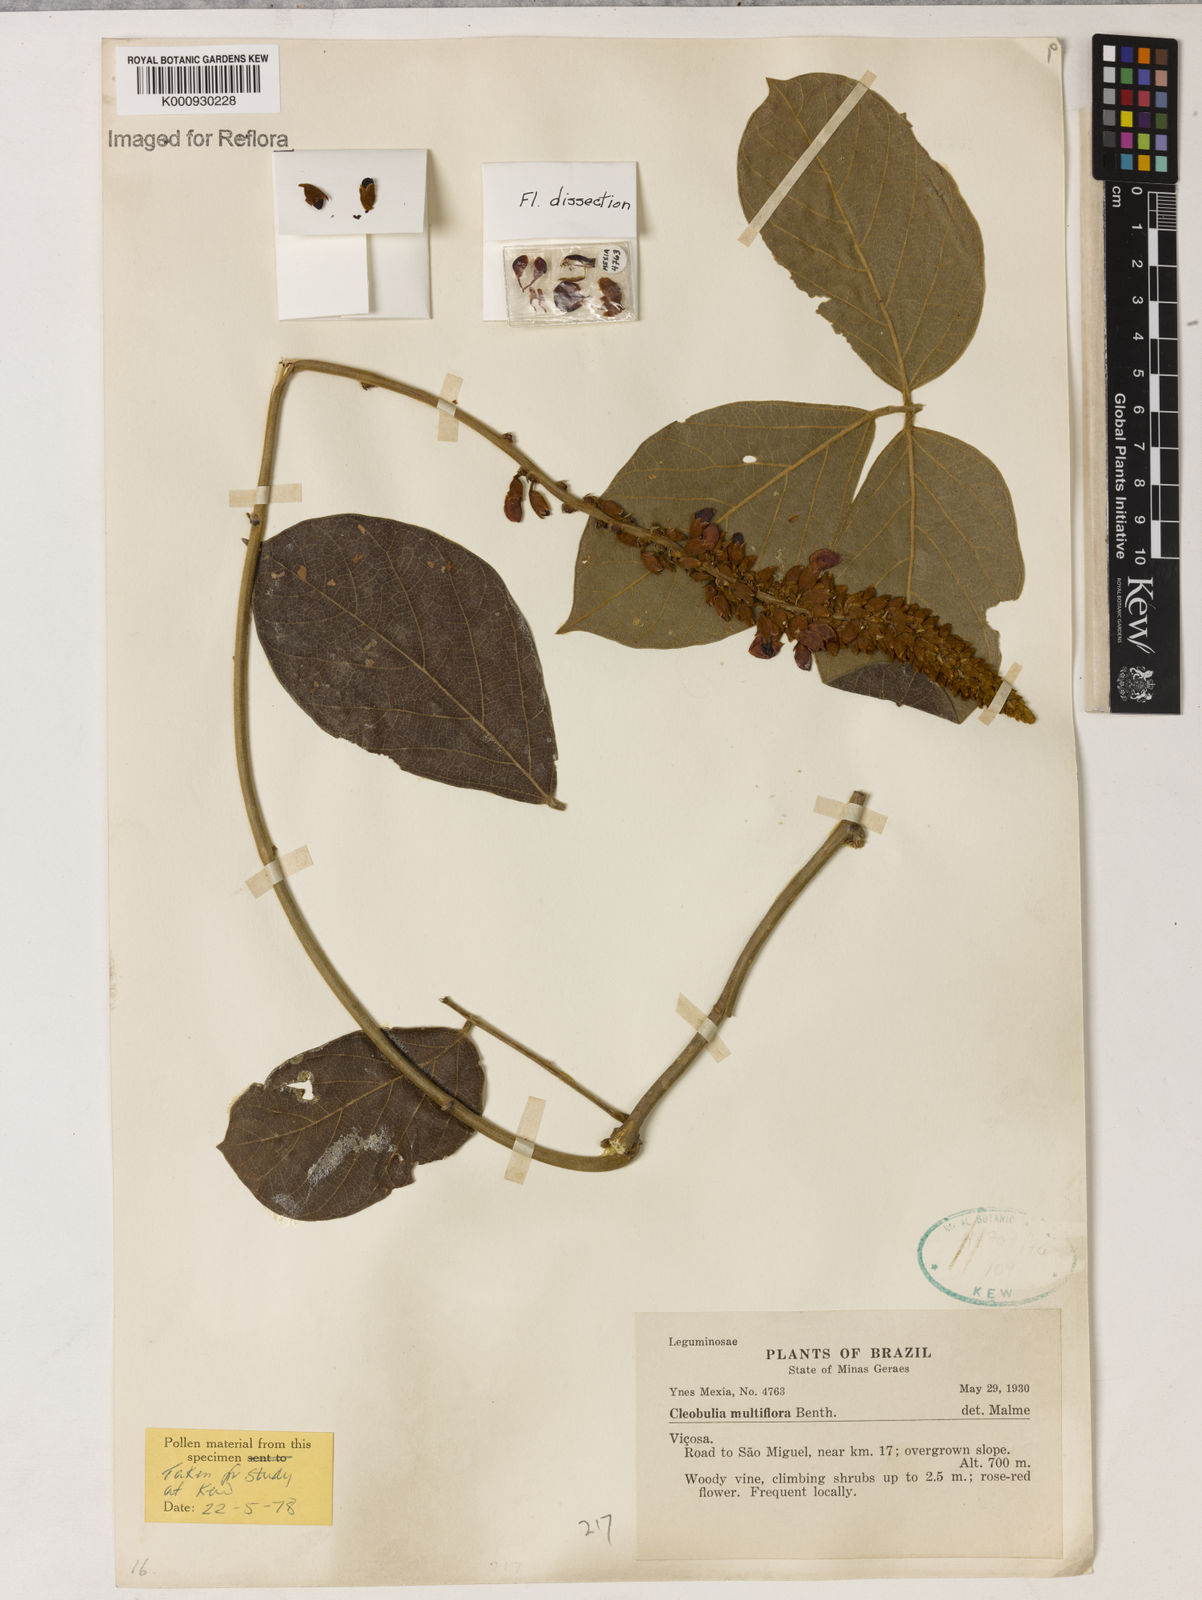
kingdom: Plantae
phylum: Tracheophyta
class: Magnoliopsida
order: Fabales
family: Fabaceae
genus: Cleobulia
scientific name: Cleobulia coccinea
